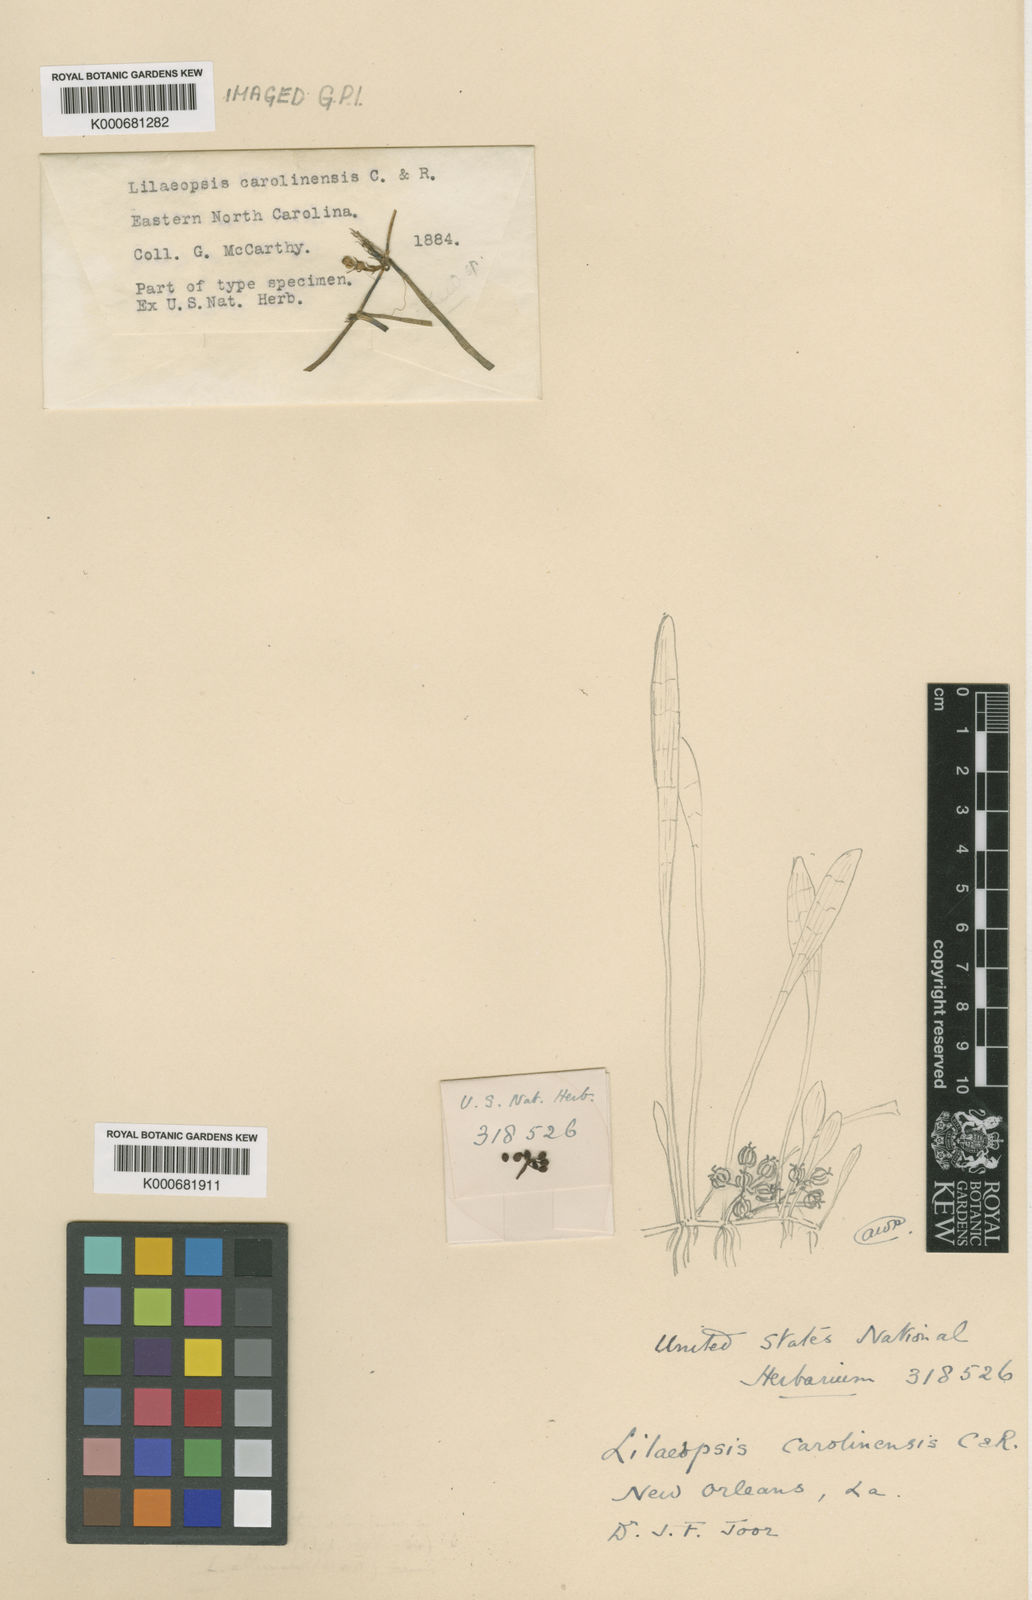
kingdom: Plantae
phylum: Tracheophyta
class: Magnoliopsida
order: Apiales
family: Apiaceae
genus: Lilaeopsis
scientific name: Lilaeopsis carolinensis
